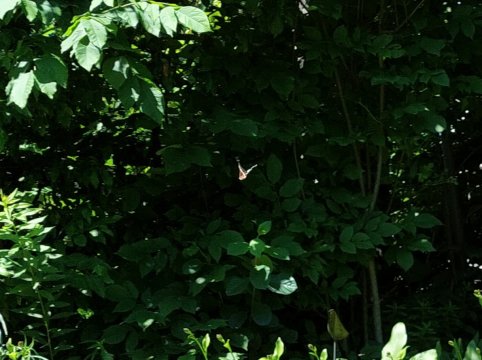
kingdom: Animalia
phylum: Arthropoda
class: Insecta
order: Lepidoptera
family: Nymphalidae
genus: Limenitis
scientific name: Limenitis arthemis
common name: Red-spotted Admiral
